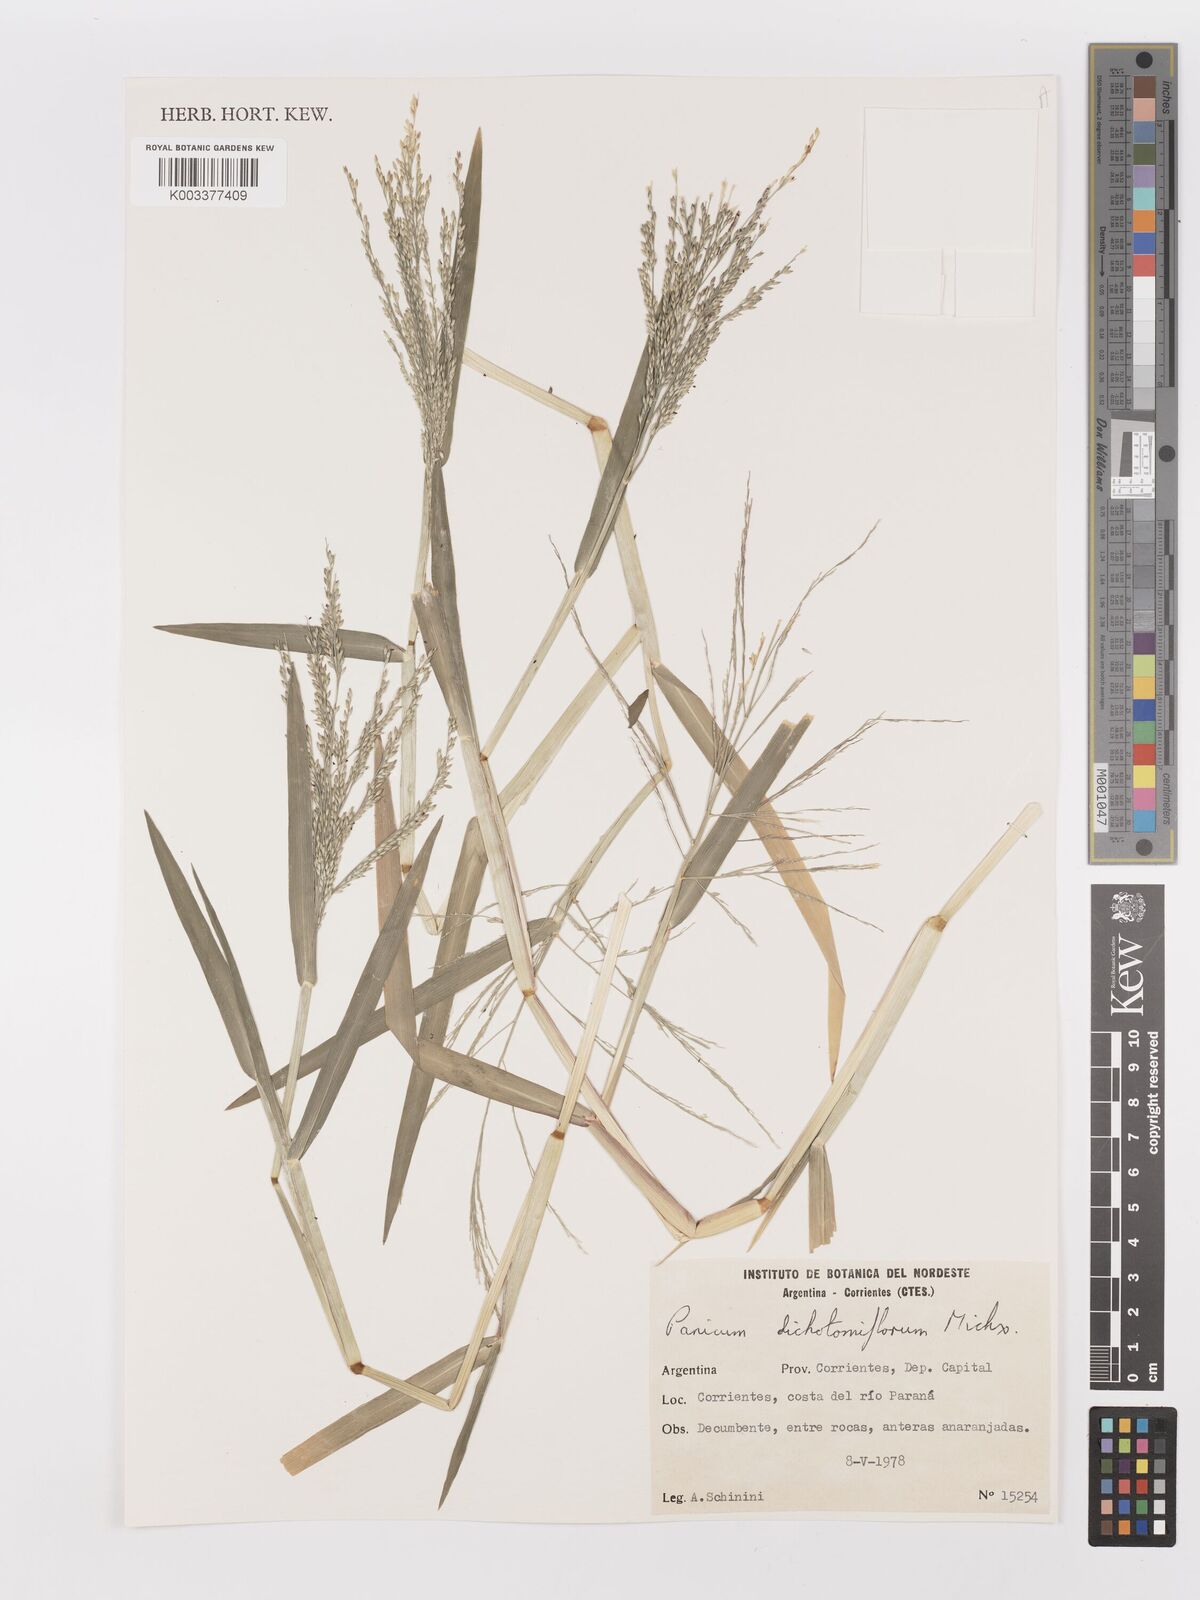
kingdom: Plantae
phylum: Tracheophyta
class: Liliopsida
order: Poales
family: Poaceae
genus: Panicum
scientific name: Panicum dichotomiflorum
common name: Autumn millet
